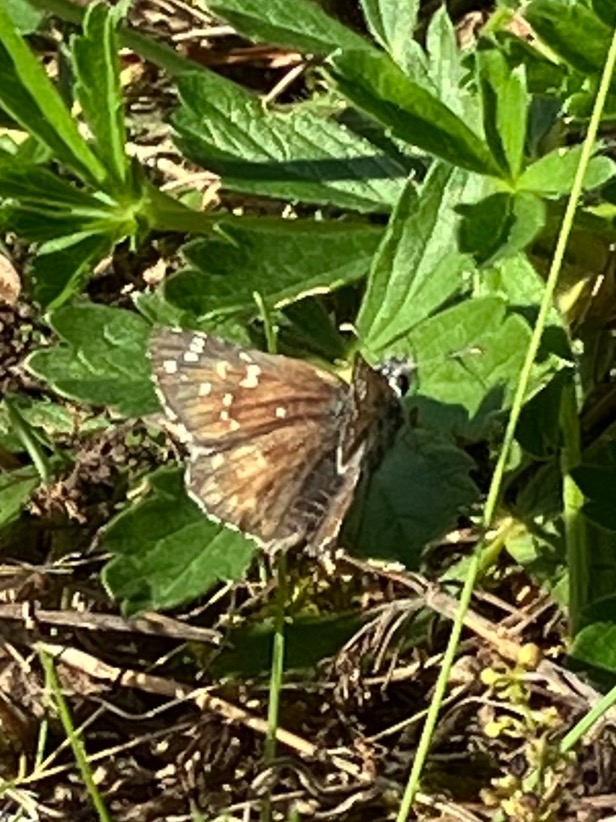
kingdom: Animalia
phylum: Arthropoda
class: Insecta
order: Lepidoptera
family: Hesperiidae
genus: Pyrgus
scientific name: Pyrgus armoricanus
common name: Fransk bredpande
